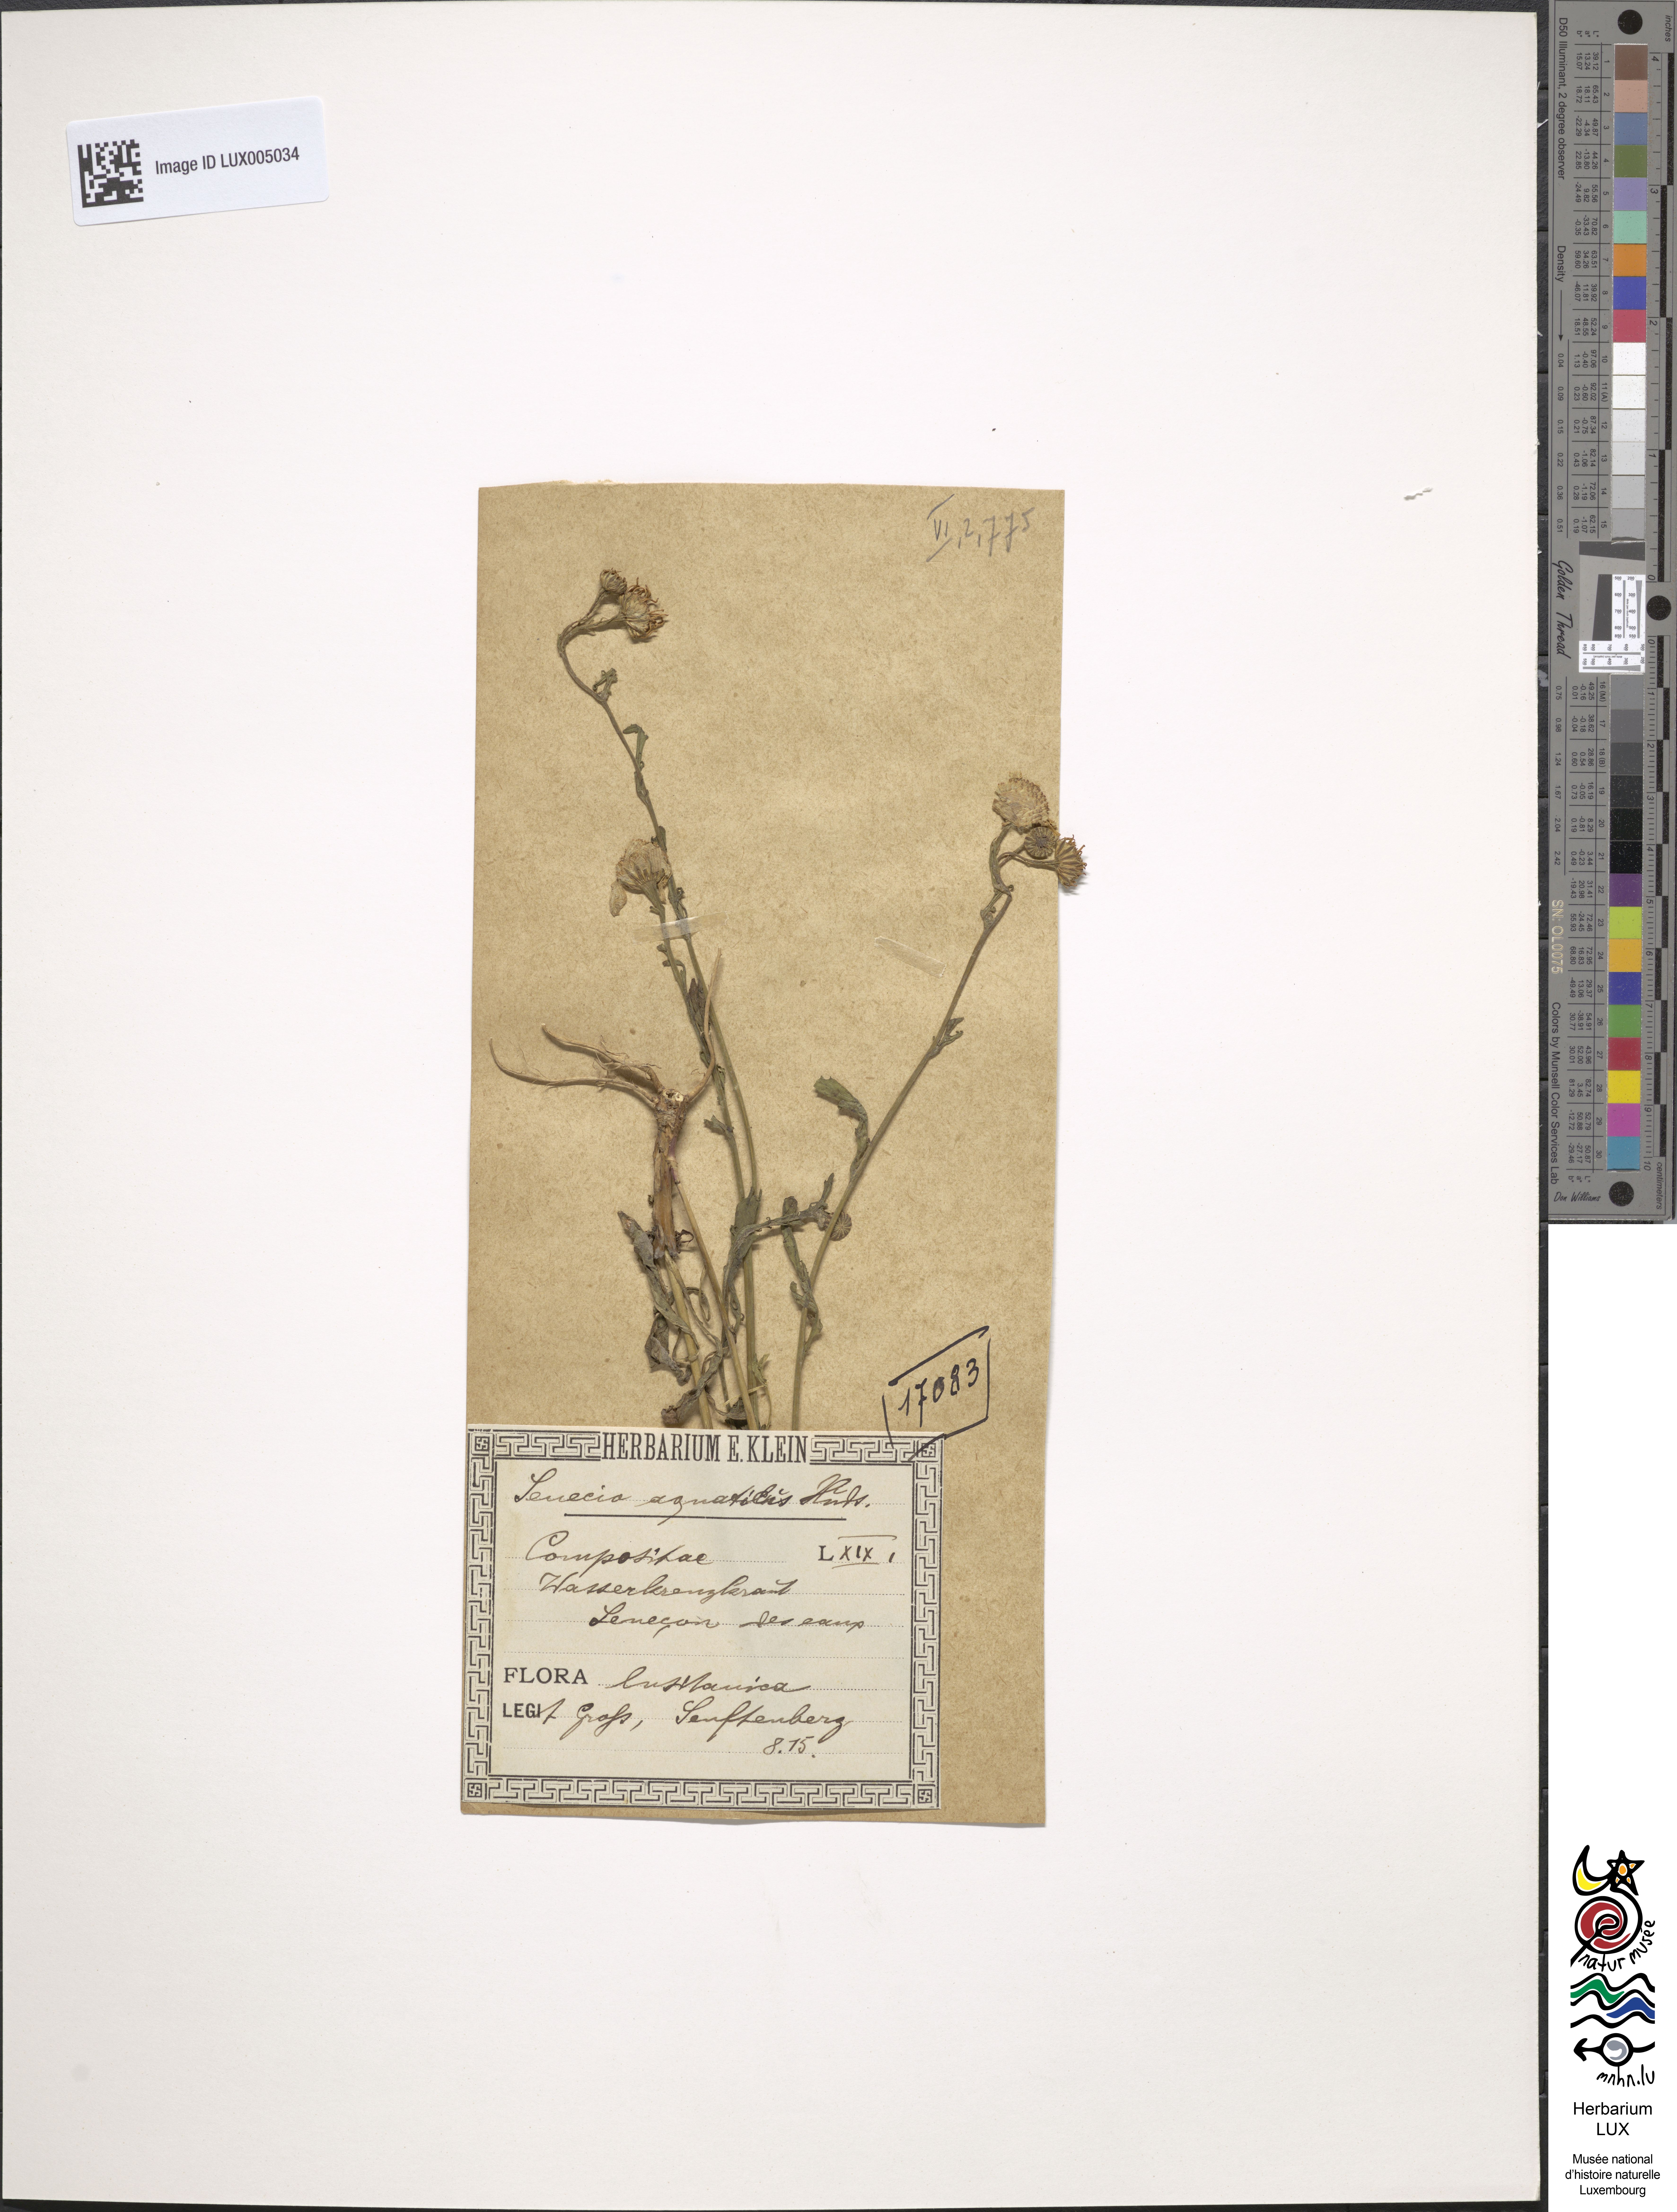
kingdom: Plantae
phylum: Tracheophyta
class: Magnoliopsida
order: Asterales
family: Asteraceae
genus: Jacobaea
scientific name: Jacobaea aquatica
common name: Water ragwort
